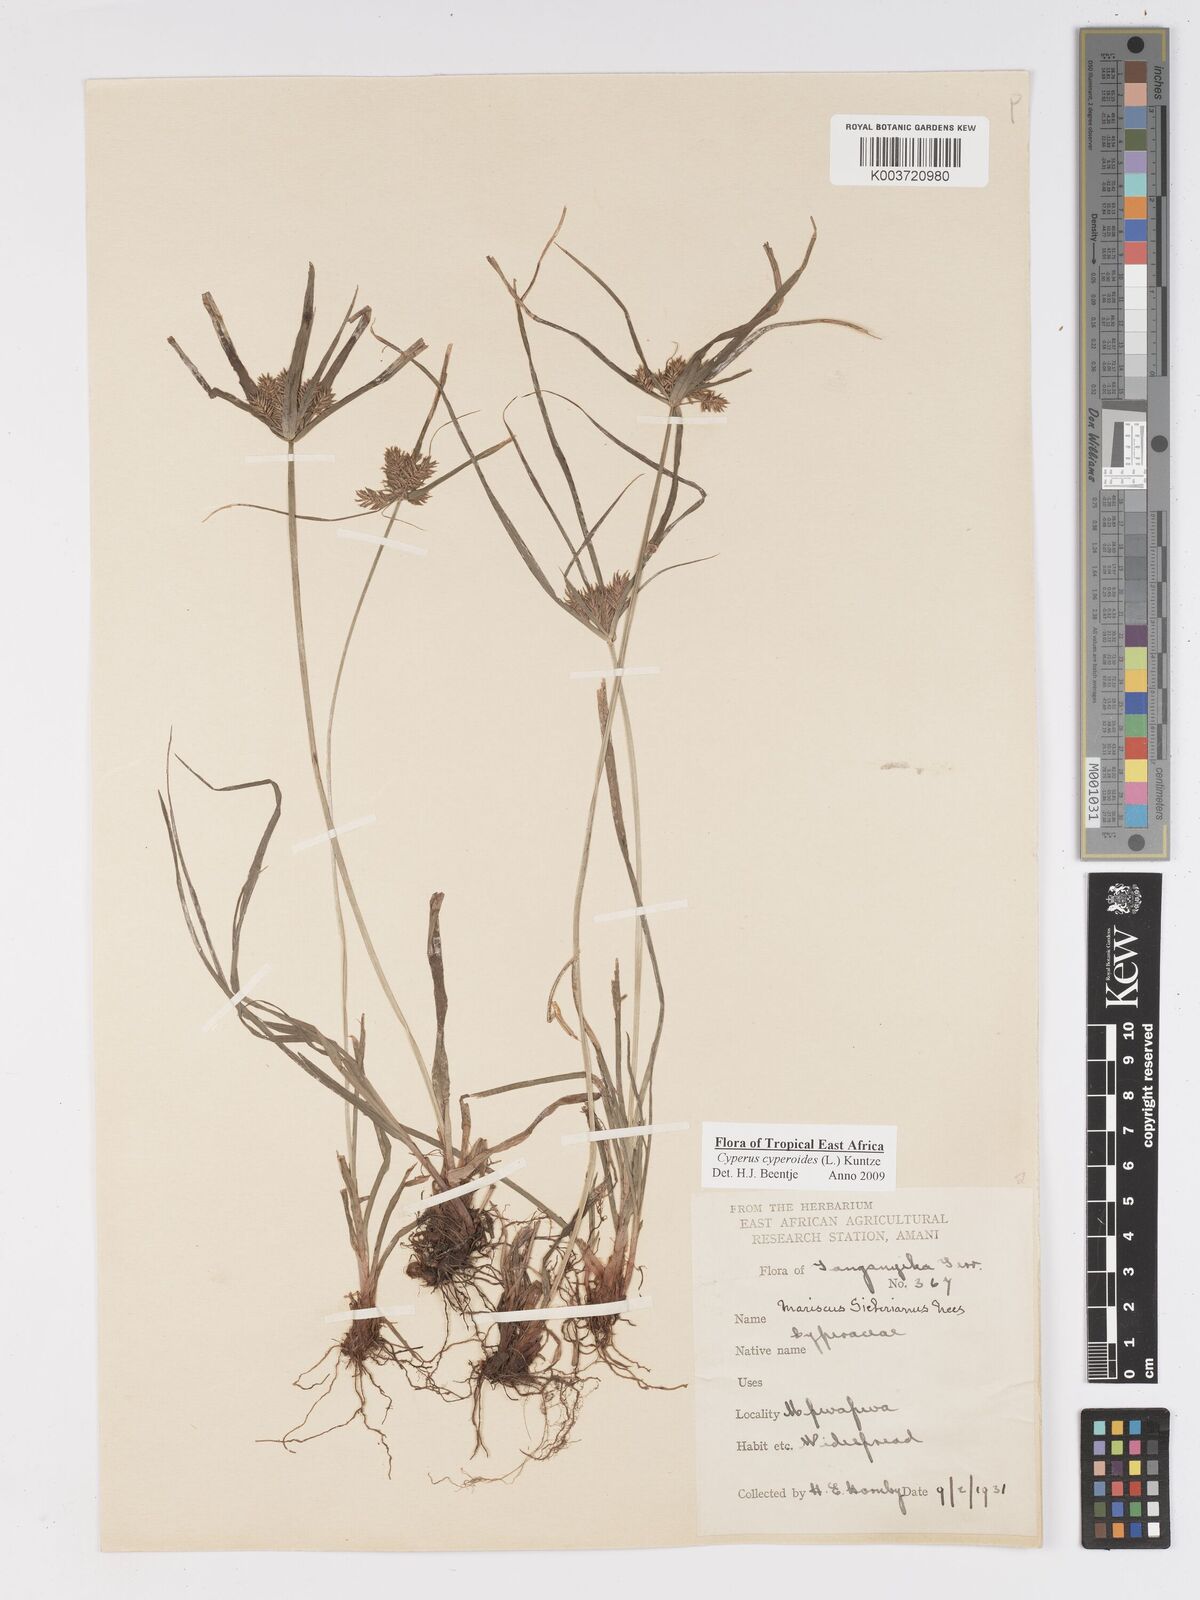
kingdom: Plantae
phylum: Tracheophyta
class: Liliopsida
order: Poales
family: Cyperaceae
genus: Cyperus
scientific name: Cyperus pseudoflavus
